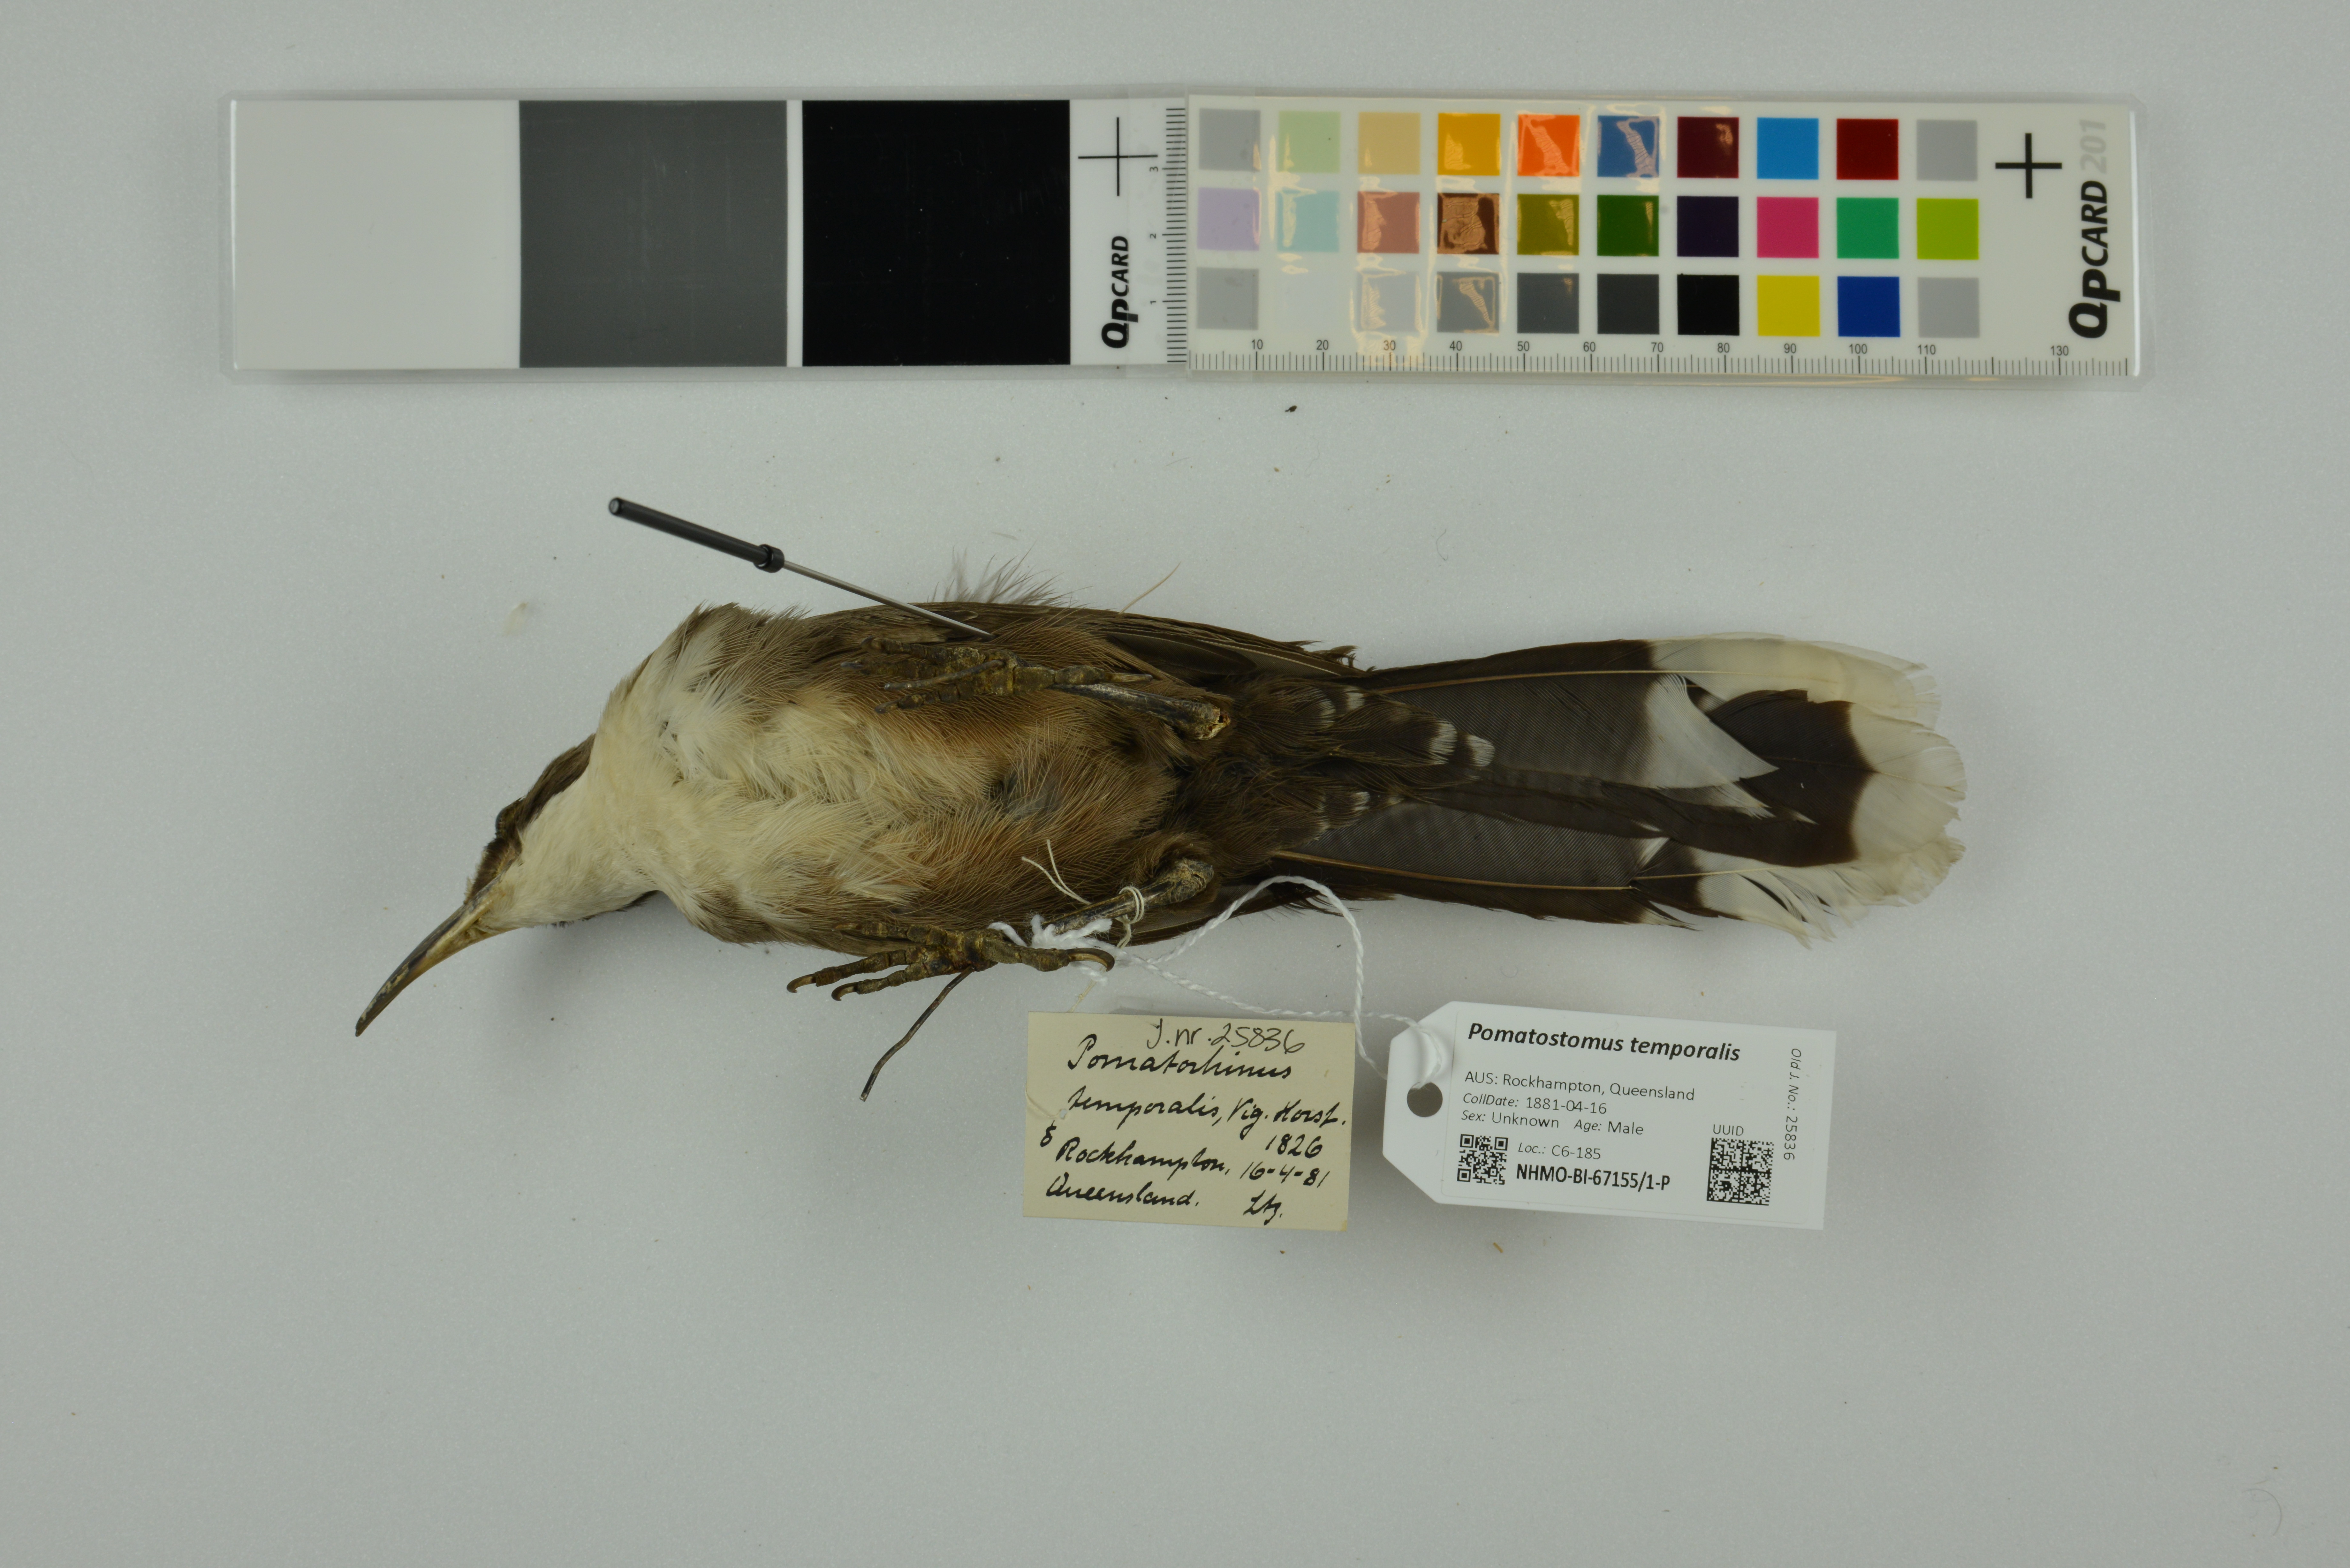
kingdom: Animalia
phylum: Chordata
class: Aves
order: Passeriformes
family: Pomatostomidae
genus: Pomatostomus
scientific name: Pomatostomus temporalis
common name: Grey-crowned babbler
